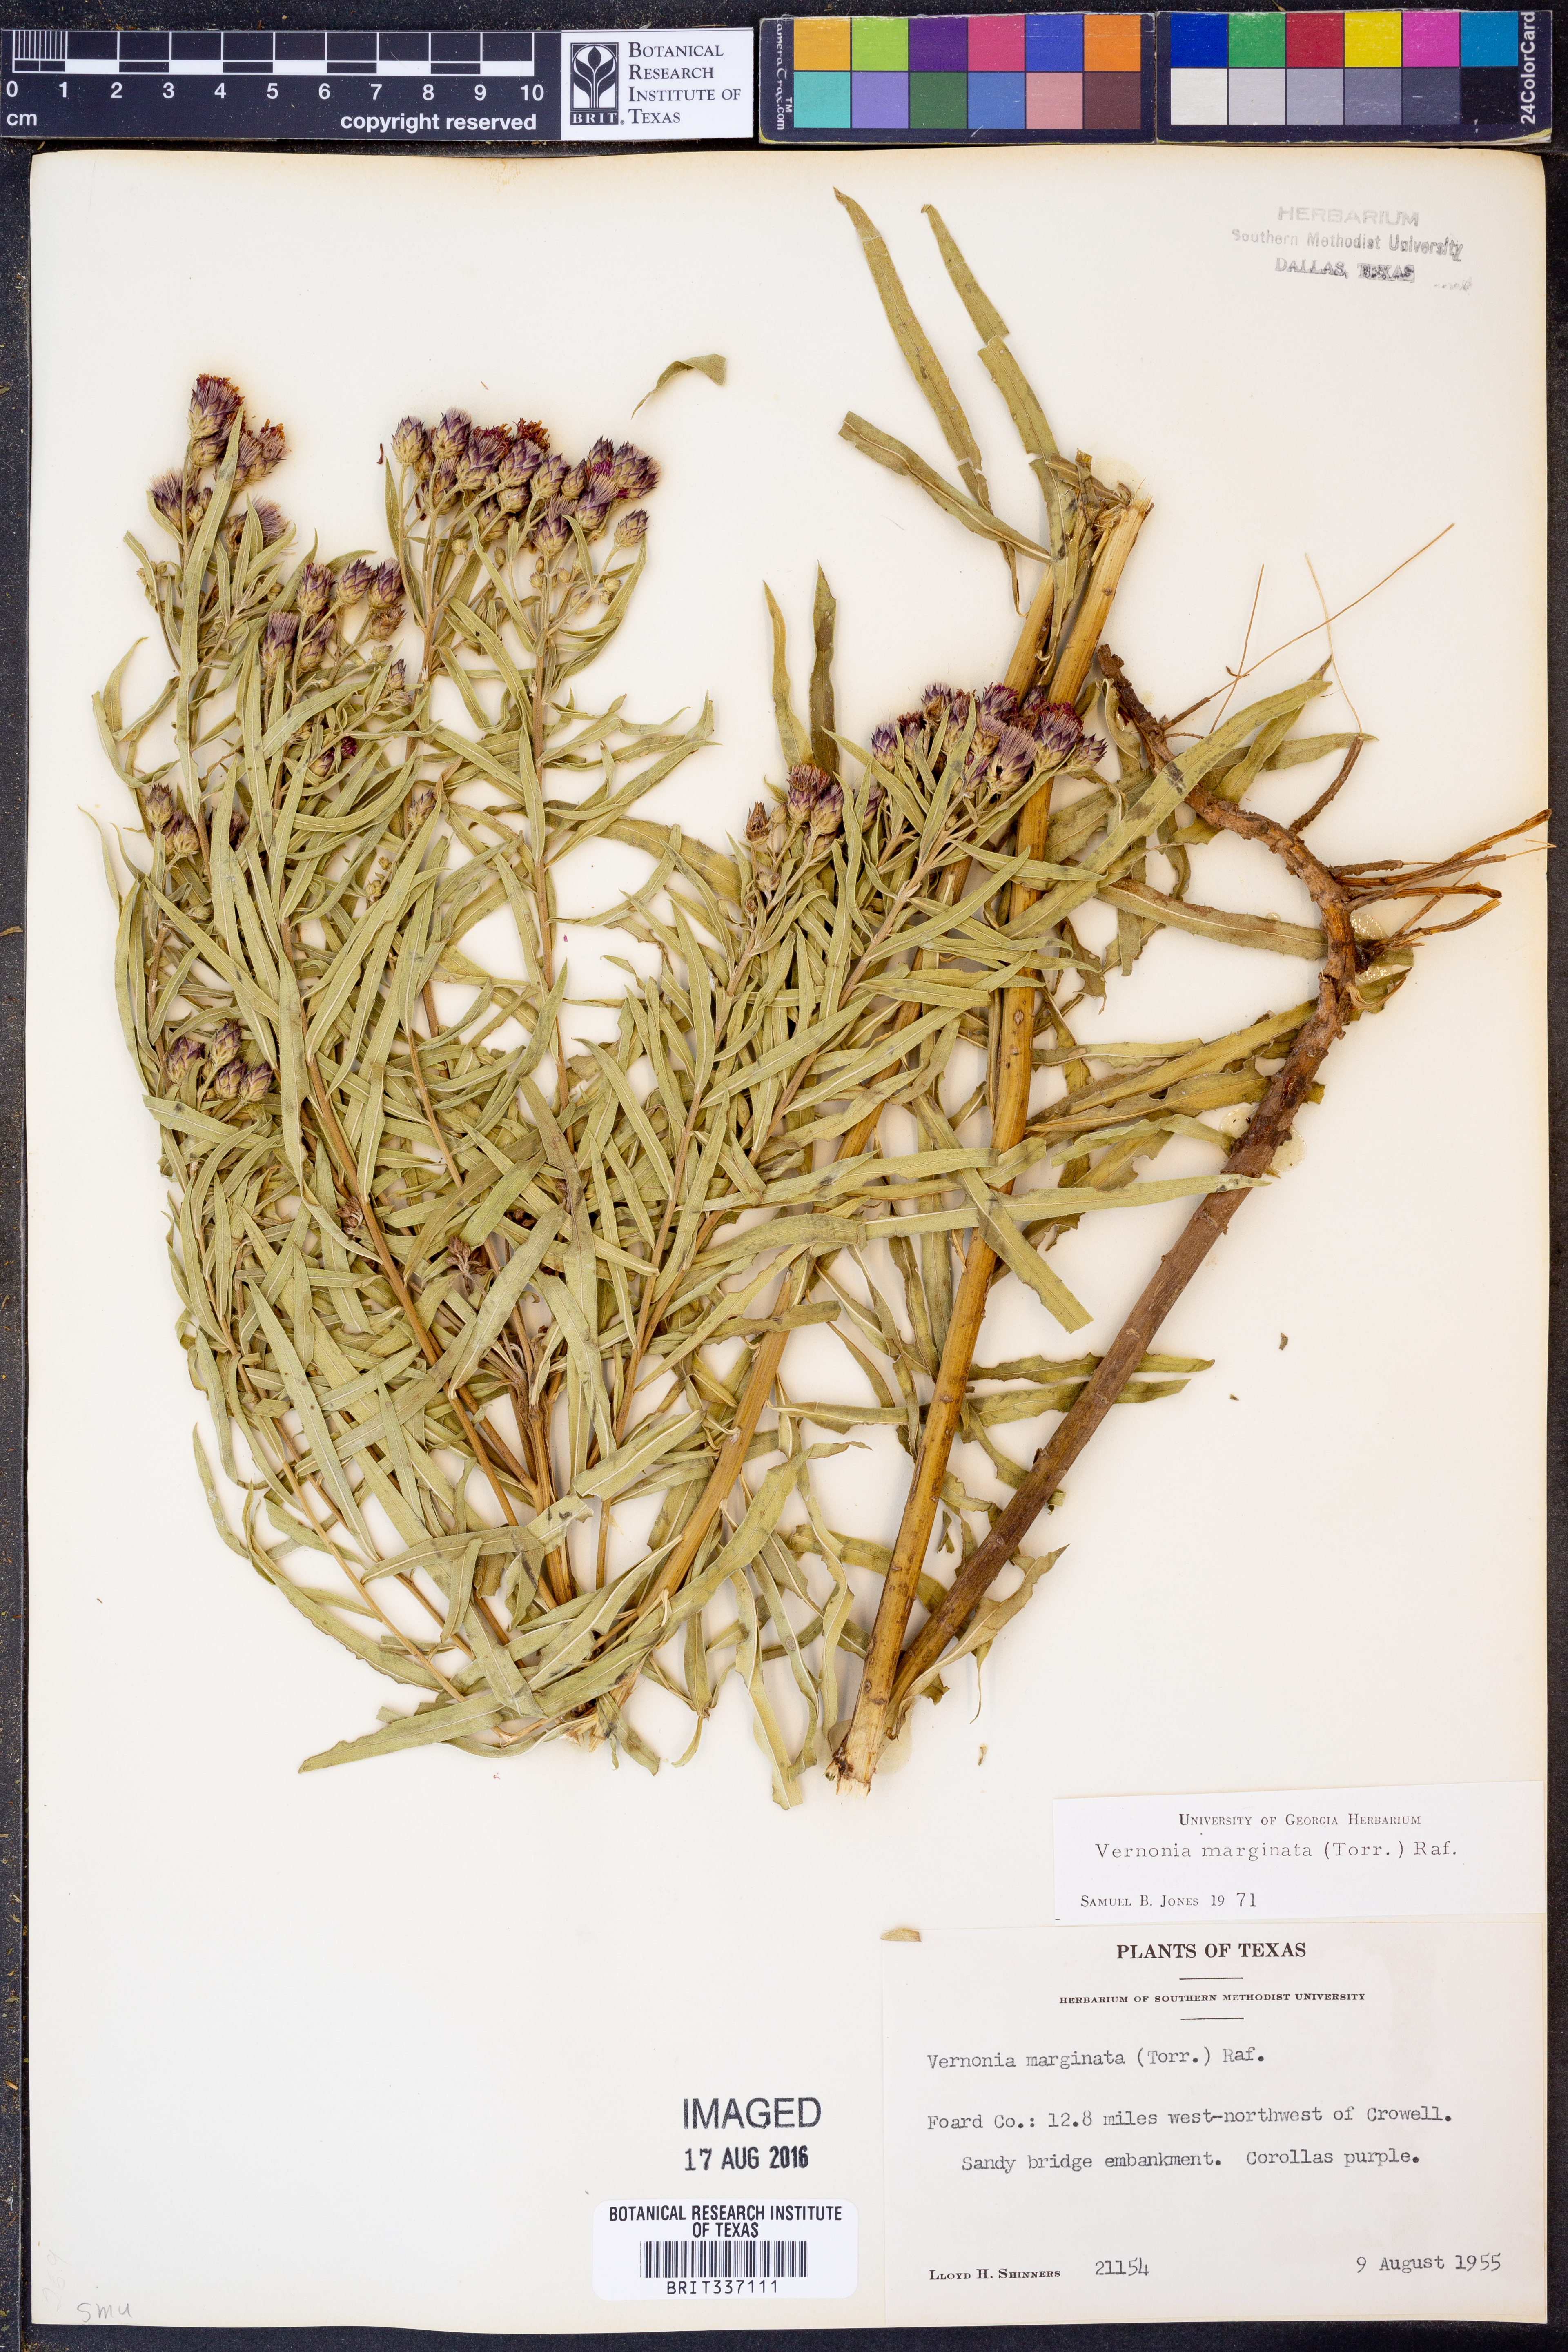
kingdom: Plantae
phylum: Tracheophyta
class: Magnoliopsida
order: Asterales
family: Asteraceae
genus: Vernonia
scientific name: Vernonia marginata
